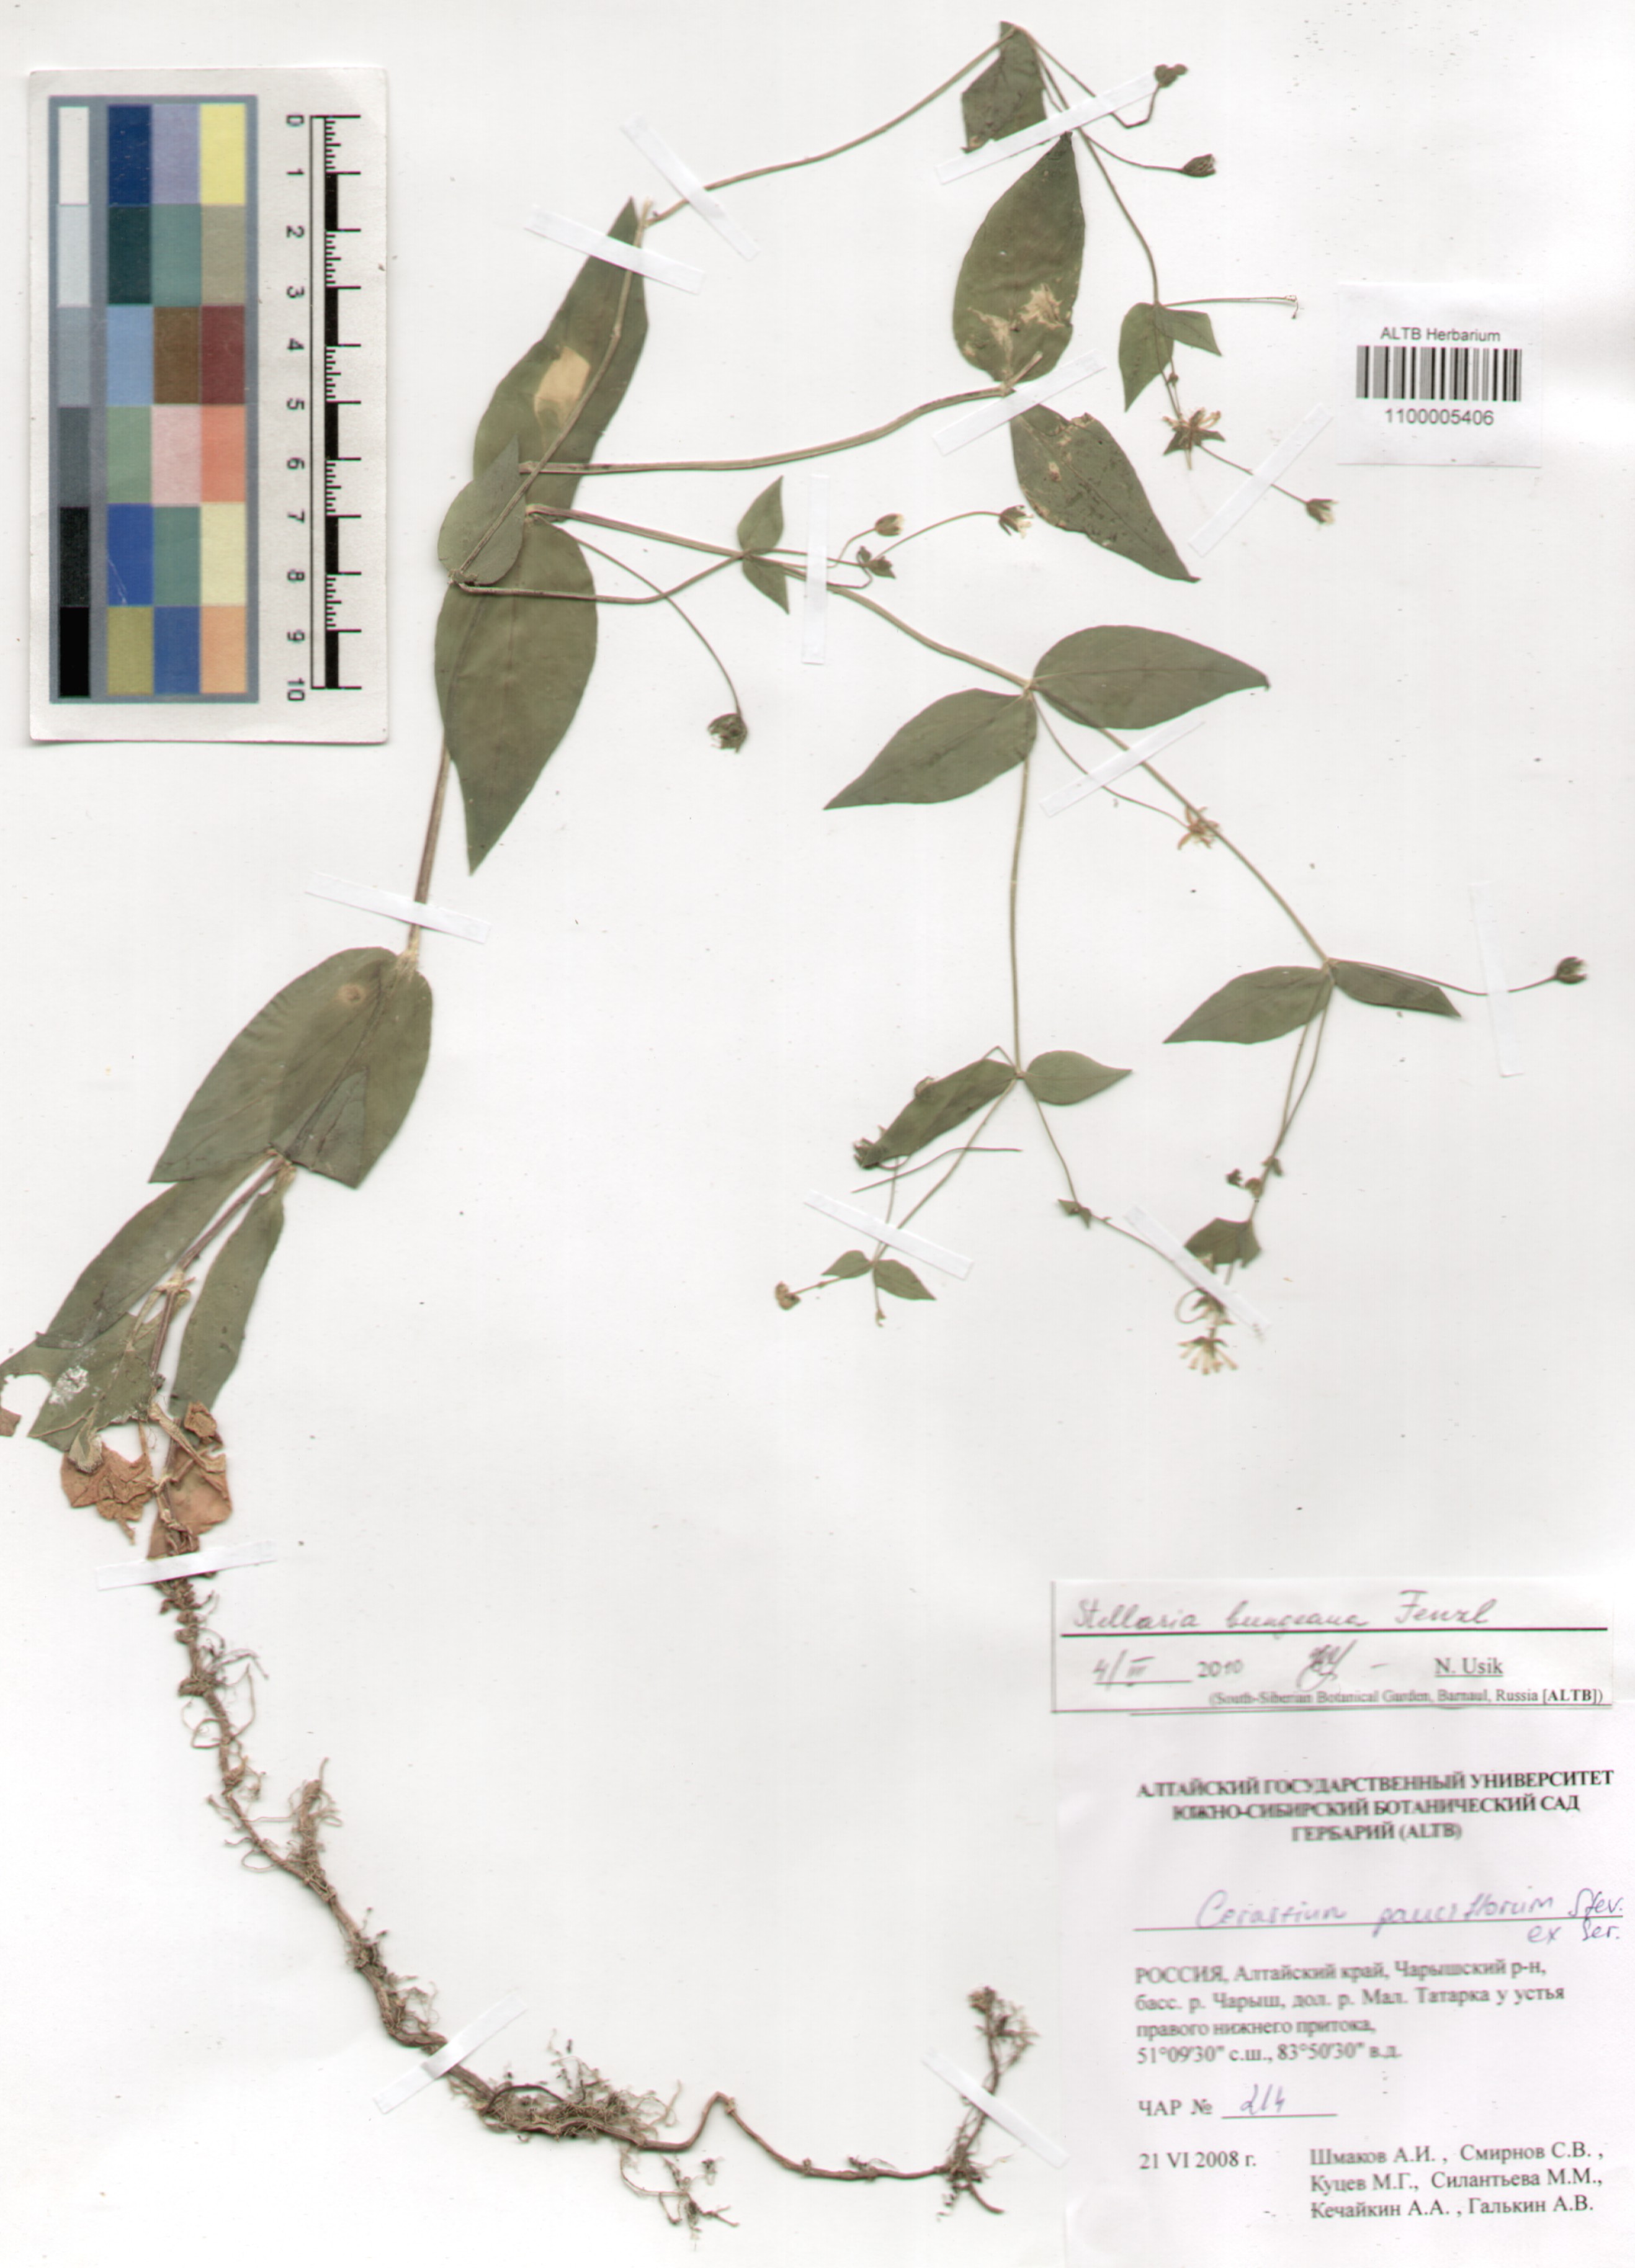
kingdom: Plantae
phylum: Tracheophyta
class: Magnoliopsida
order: Caryophyllales
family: Caryophyllaceae
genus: Stellaria
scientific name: Stellaria bungeana
